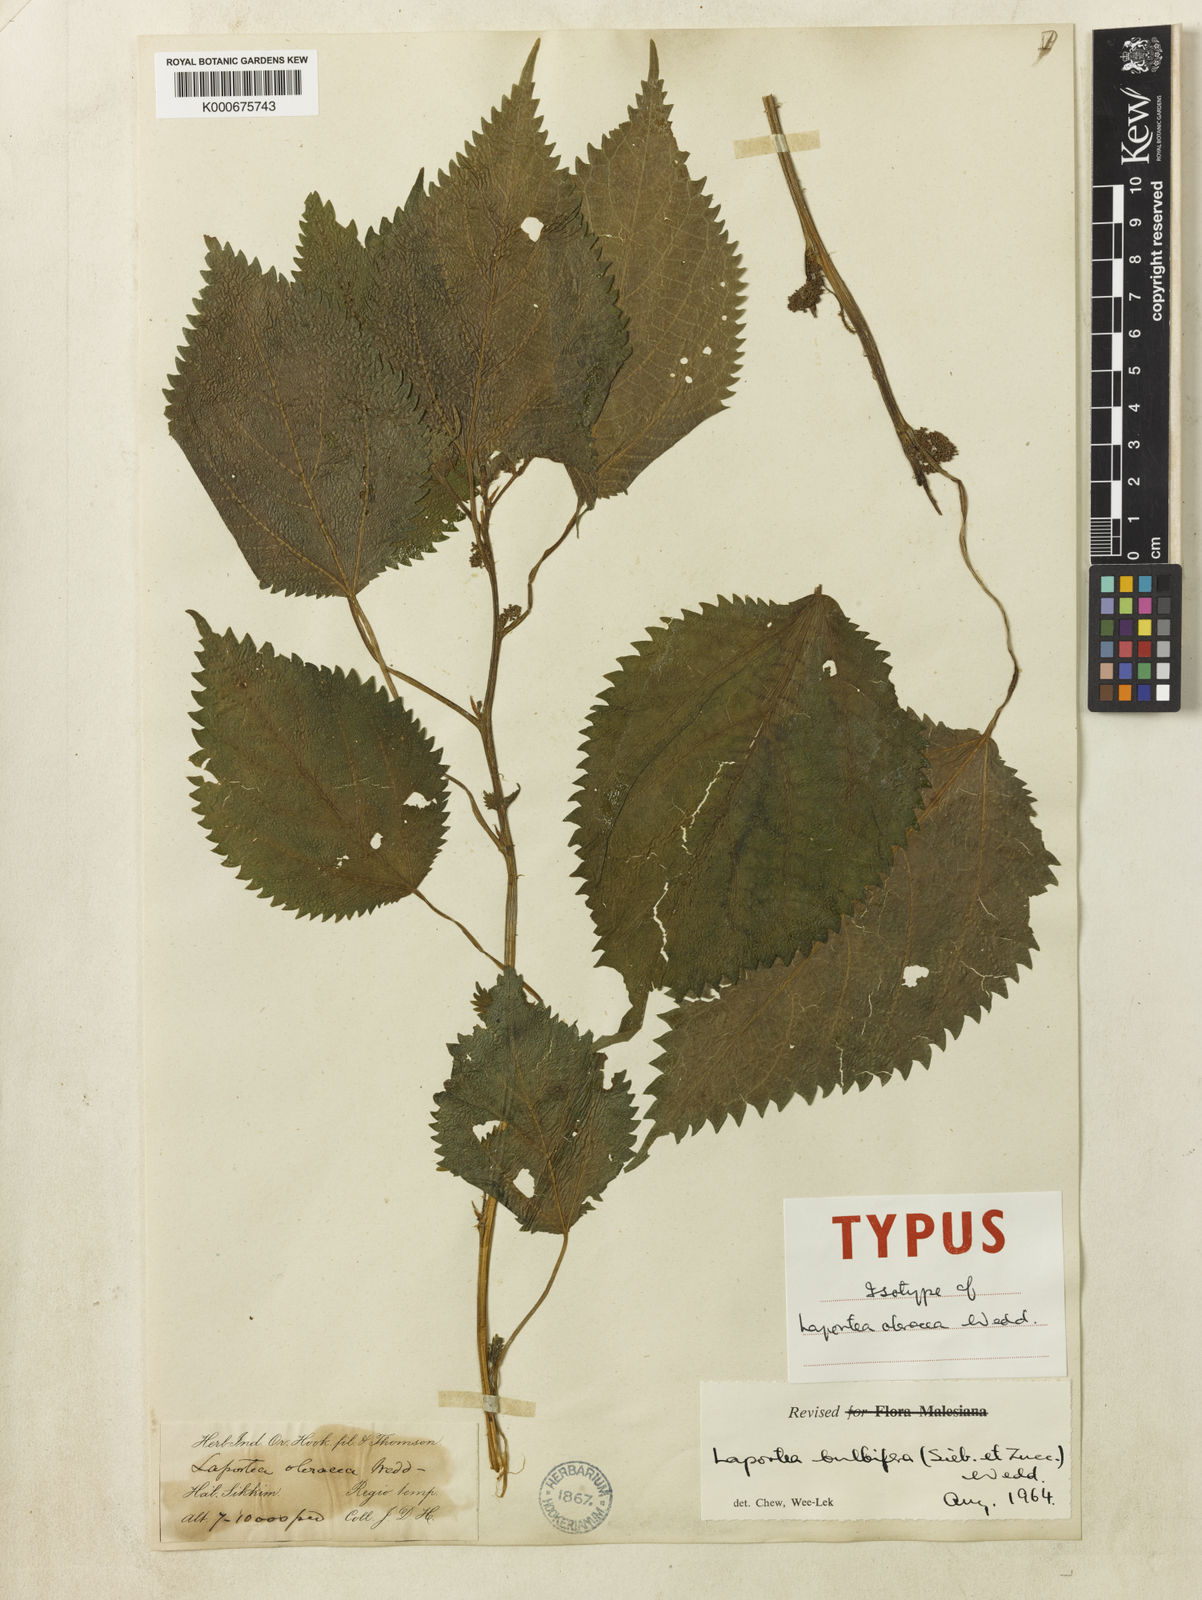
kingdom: Plantae
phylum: Tracheophyta
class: Magnoliopsida
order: Rosales
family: Urticaceae
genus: Laportea
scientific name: Laportea bulbifera
